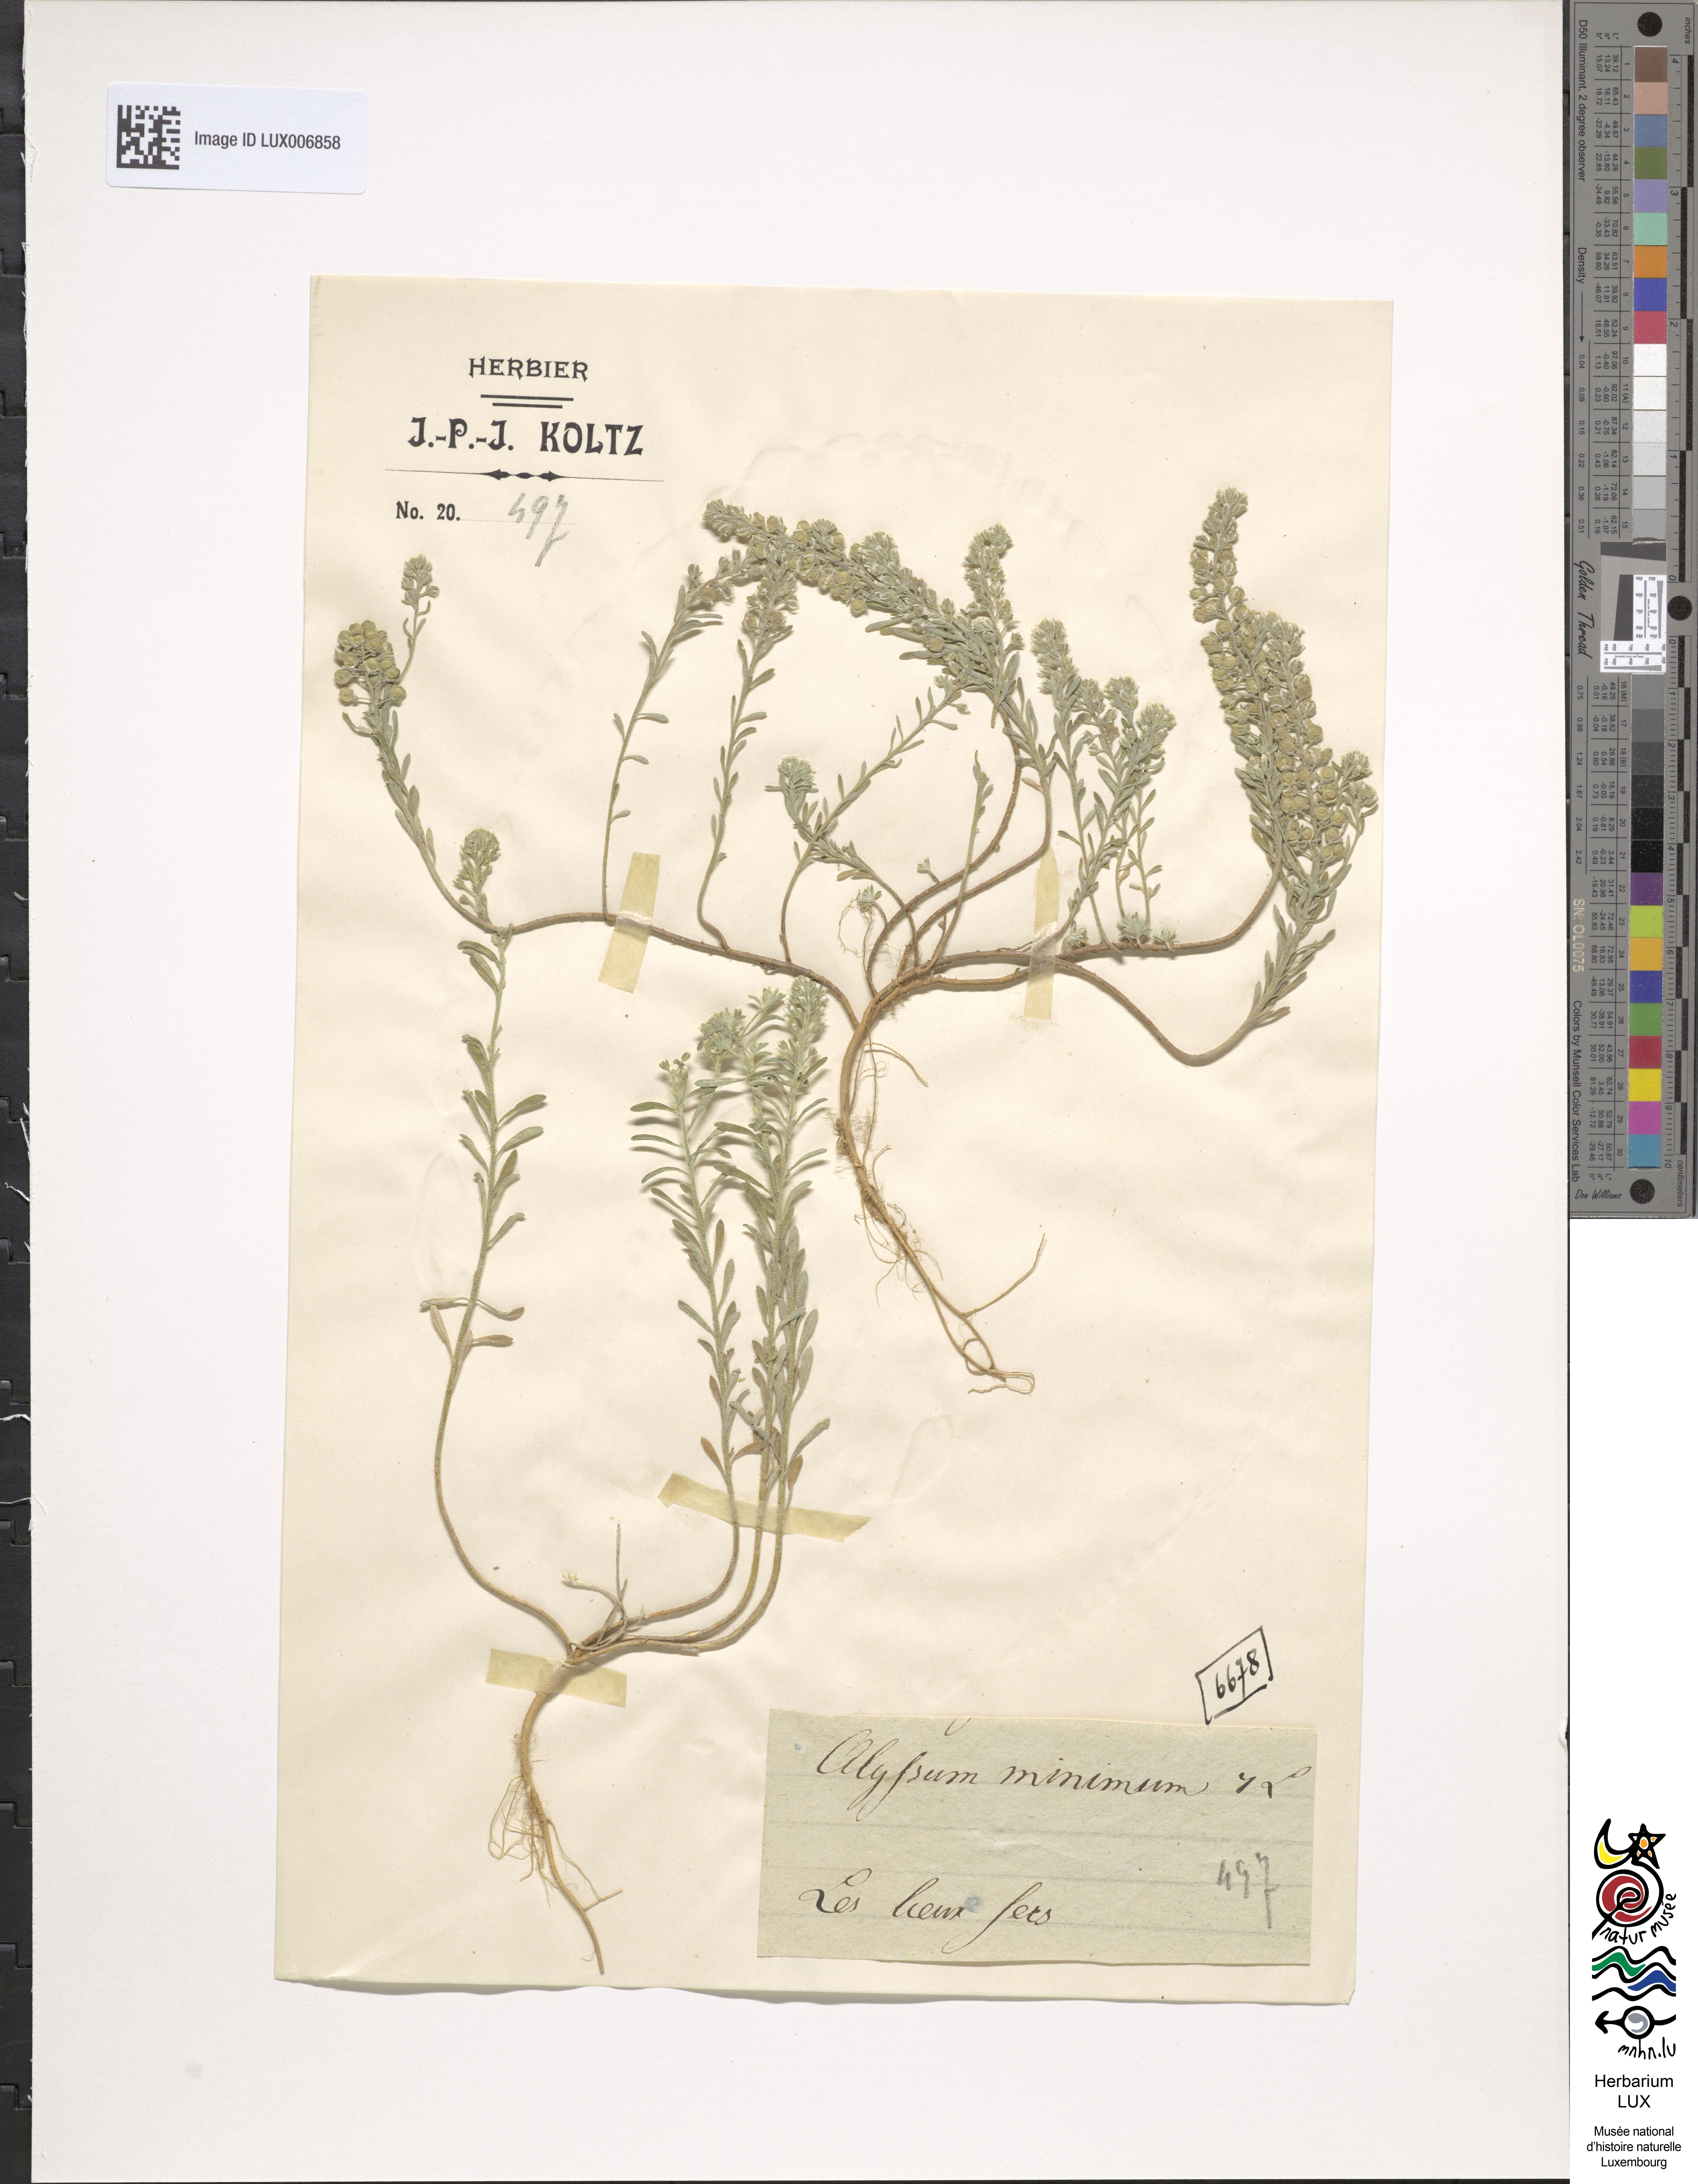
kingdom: Plantae
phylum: Tracheophyta
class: Magnoliopsida
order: Brassicales
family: Brassicaceae
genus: Alyssum
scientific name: Alyssum turkestanicum
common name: Desert alyssum
